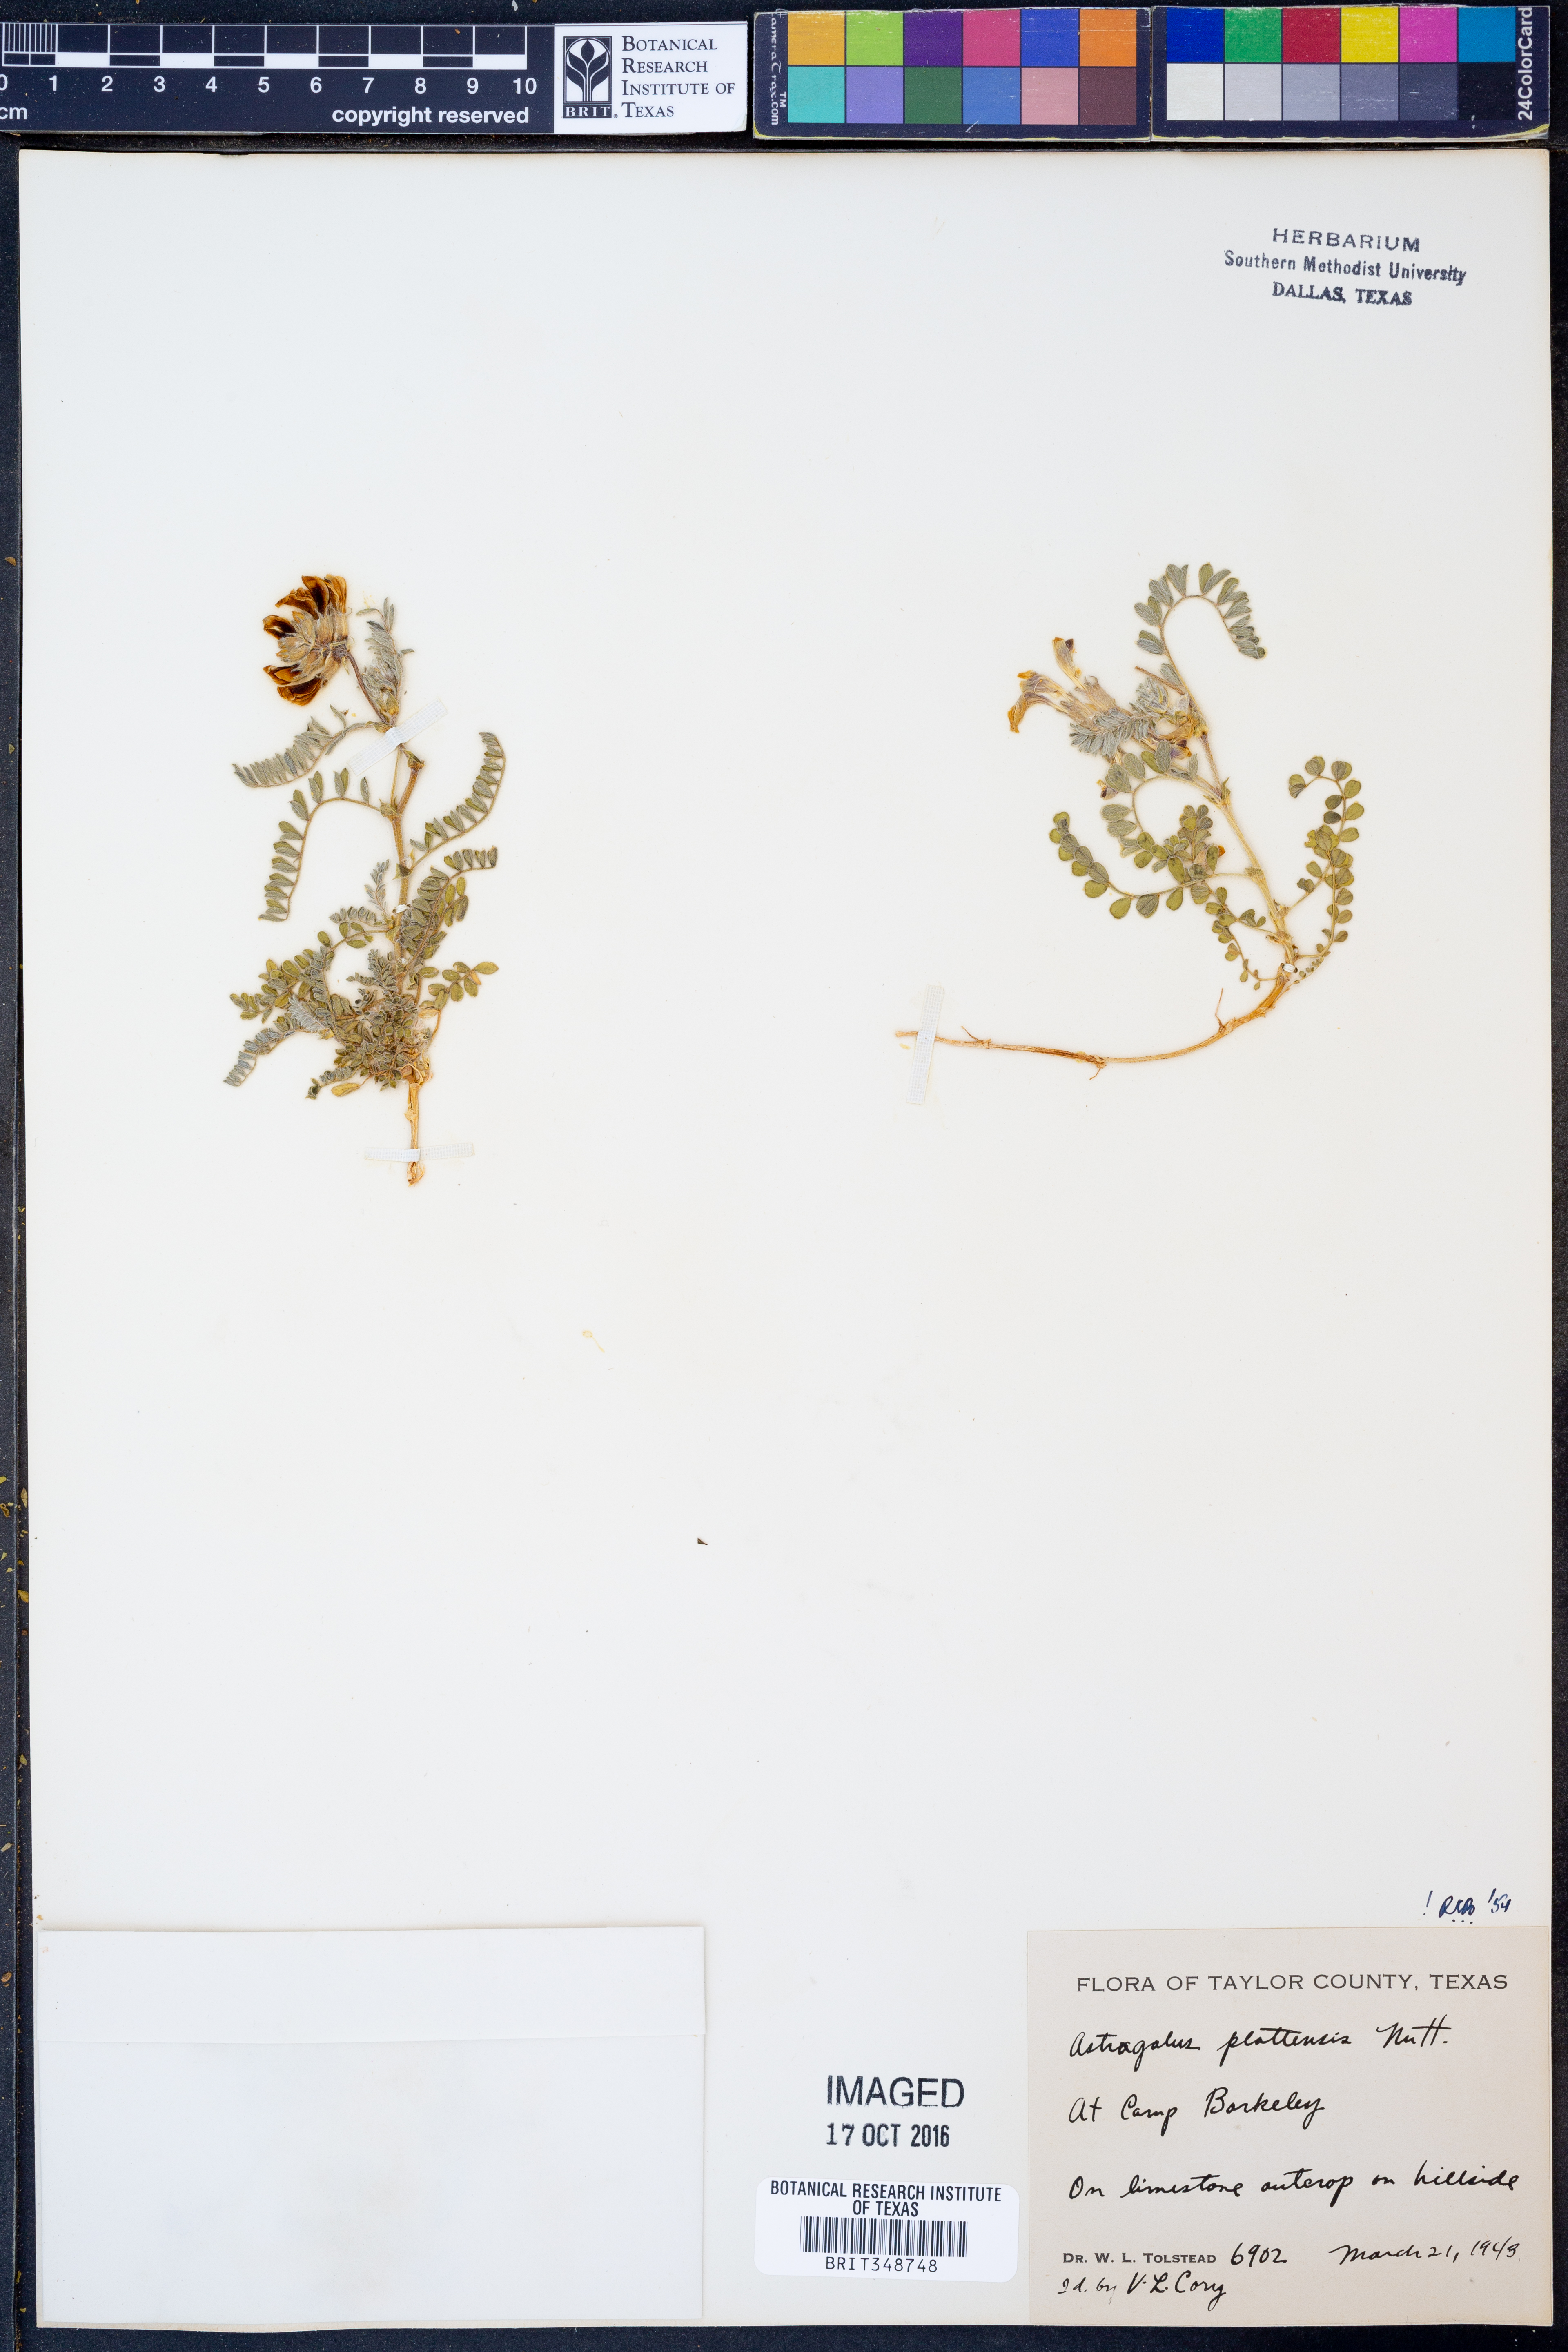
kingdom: Plantae
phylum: Tracheophyta
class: Magnoliopsida
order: Fabales
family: Fabaceae
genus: Astragalus
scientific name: Astragalus plattensis
